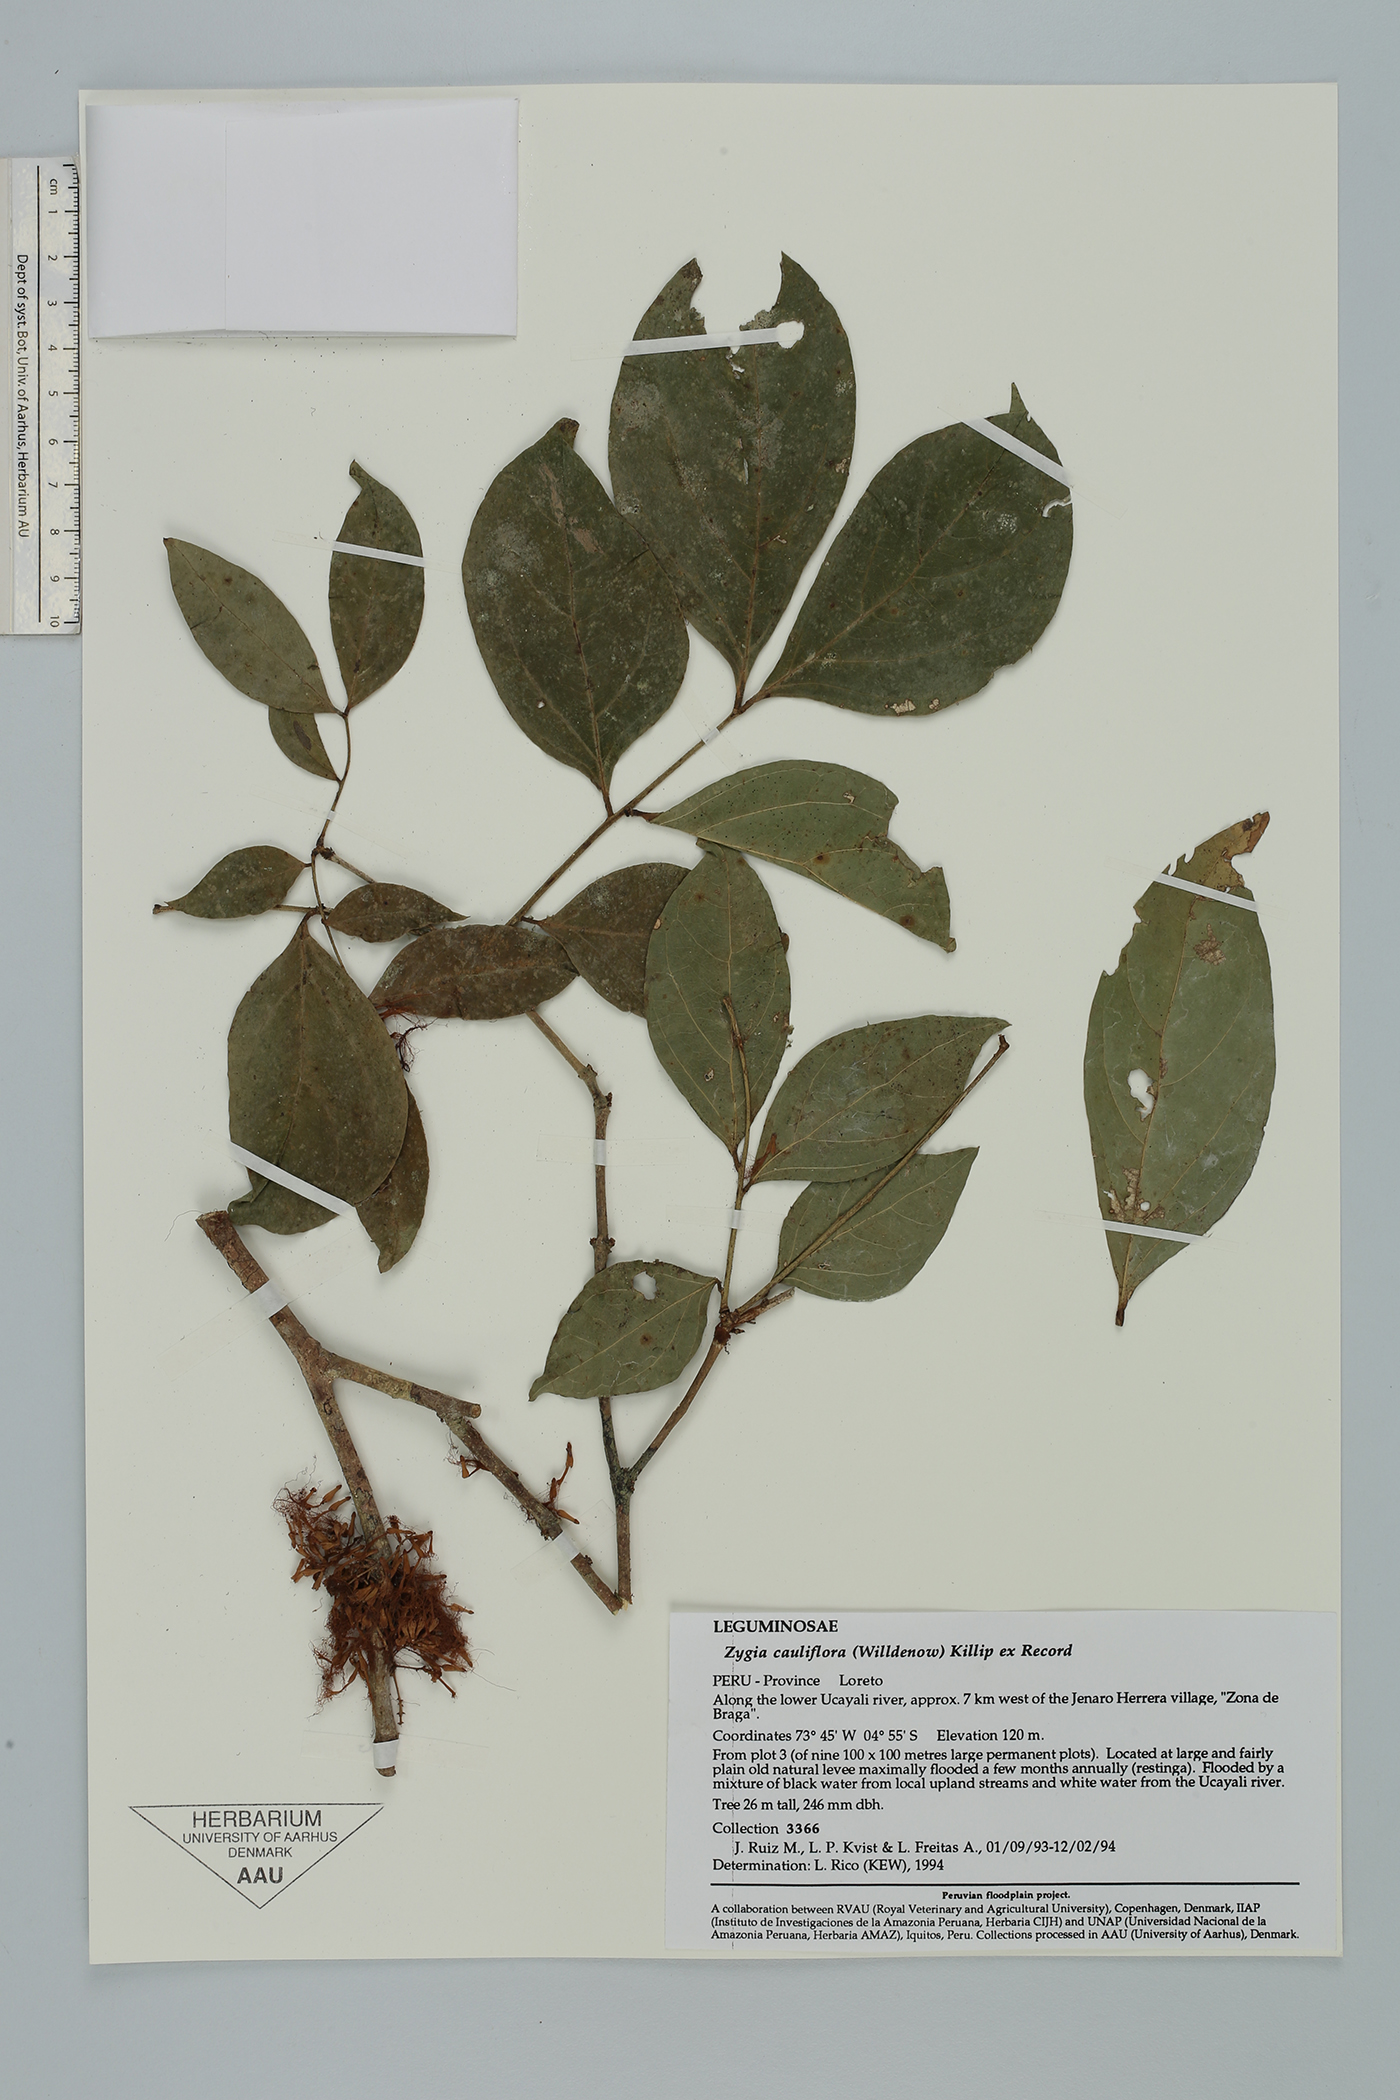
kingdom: Plantae
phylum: Tracheophyta
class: Magnoliopsida
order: Fabales
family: Fabaceae
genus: Zygia
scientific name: Zygia cauliflora
